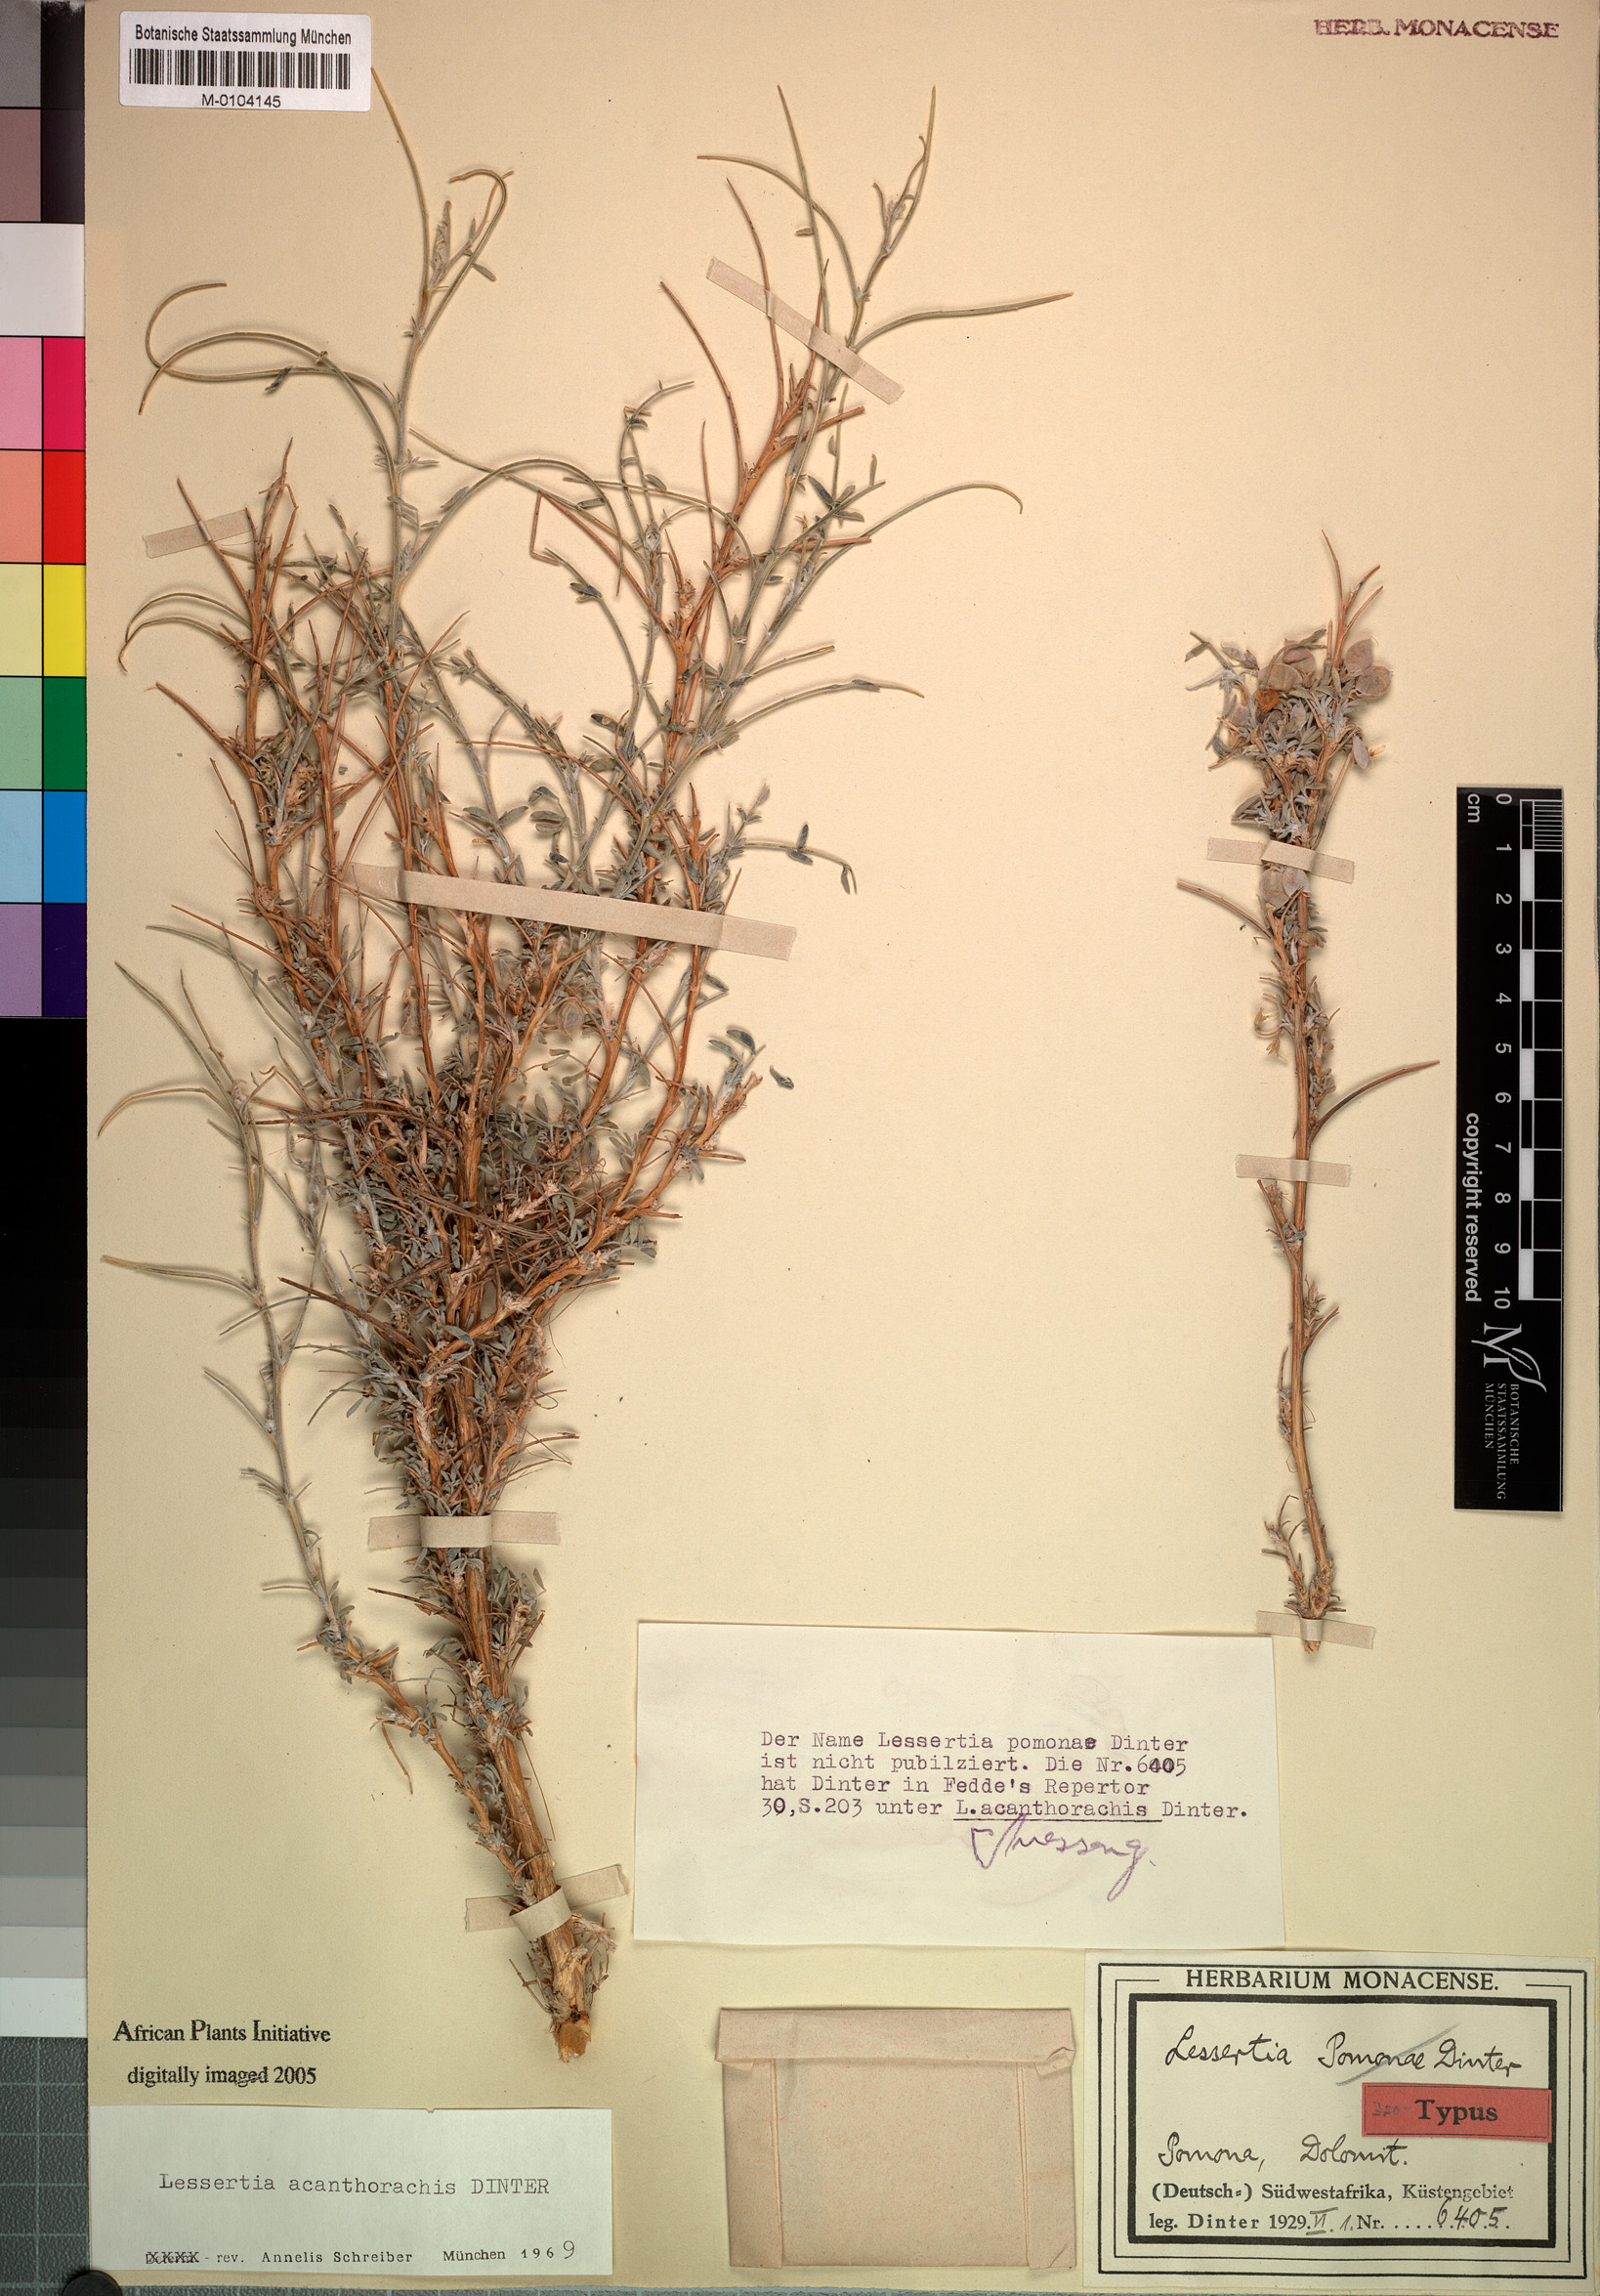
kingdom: Plantae
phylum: Tracheophyta
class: Magnoliopsida
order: Fabales
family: Fabaceae
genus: Lessertia
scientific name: Lessertia acanthorhachis
